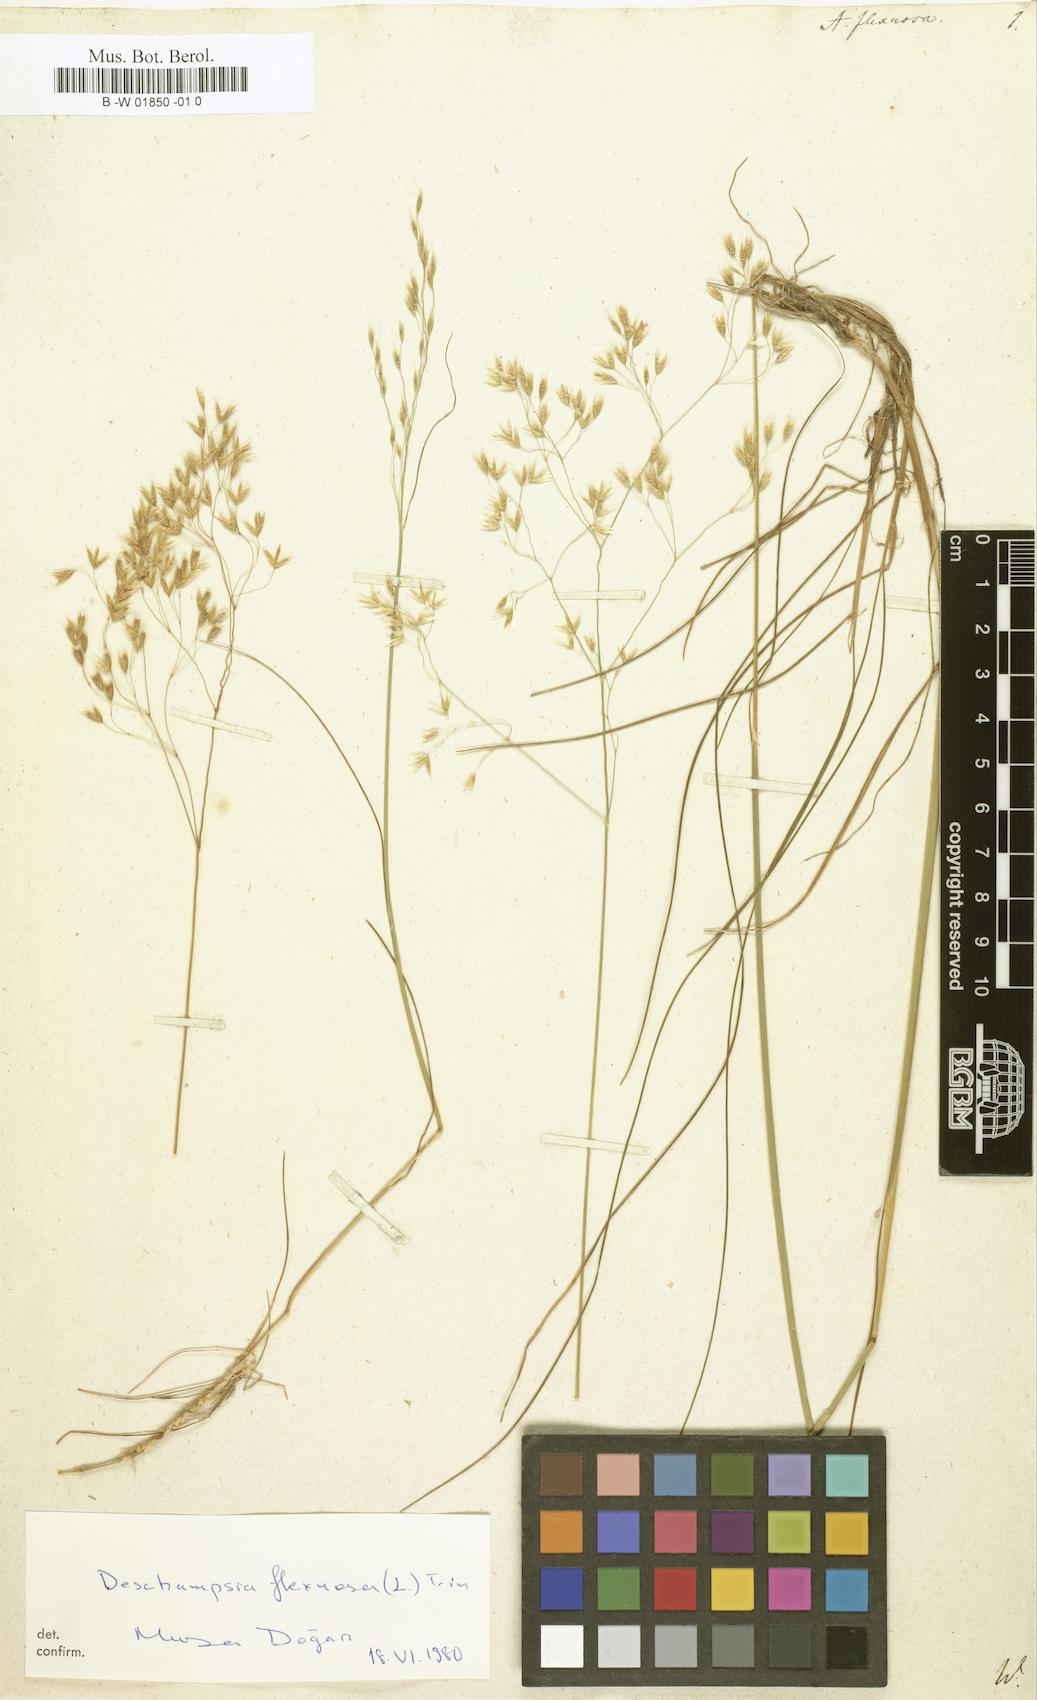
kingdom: Plantae
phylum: Tracheophyta
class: Liliopsida
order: Poales
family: Poaceae
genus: Avenella
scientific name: Avenella flexuosa
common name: Wavy hairgrass
